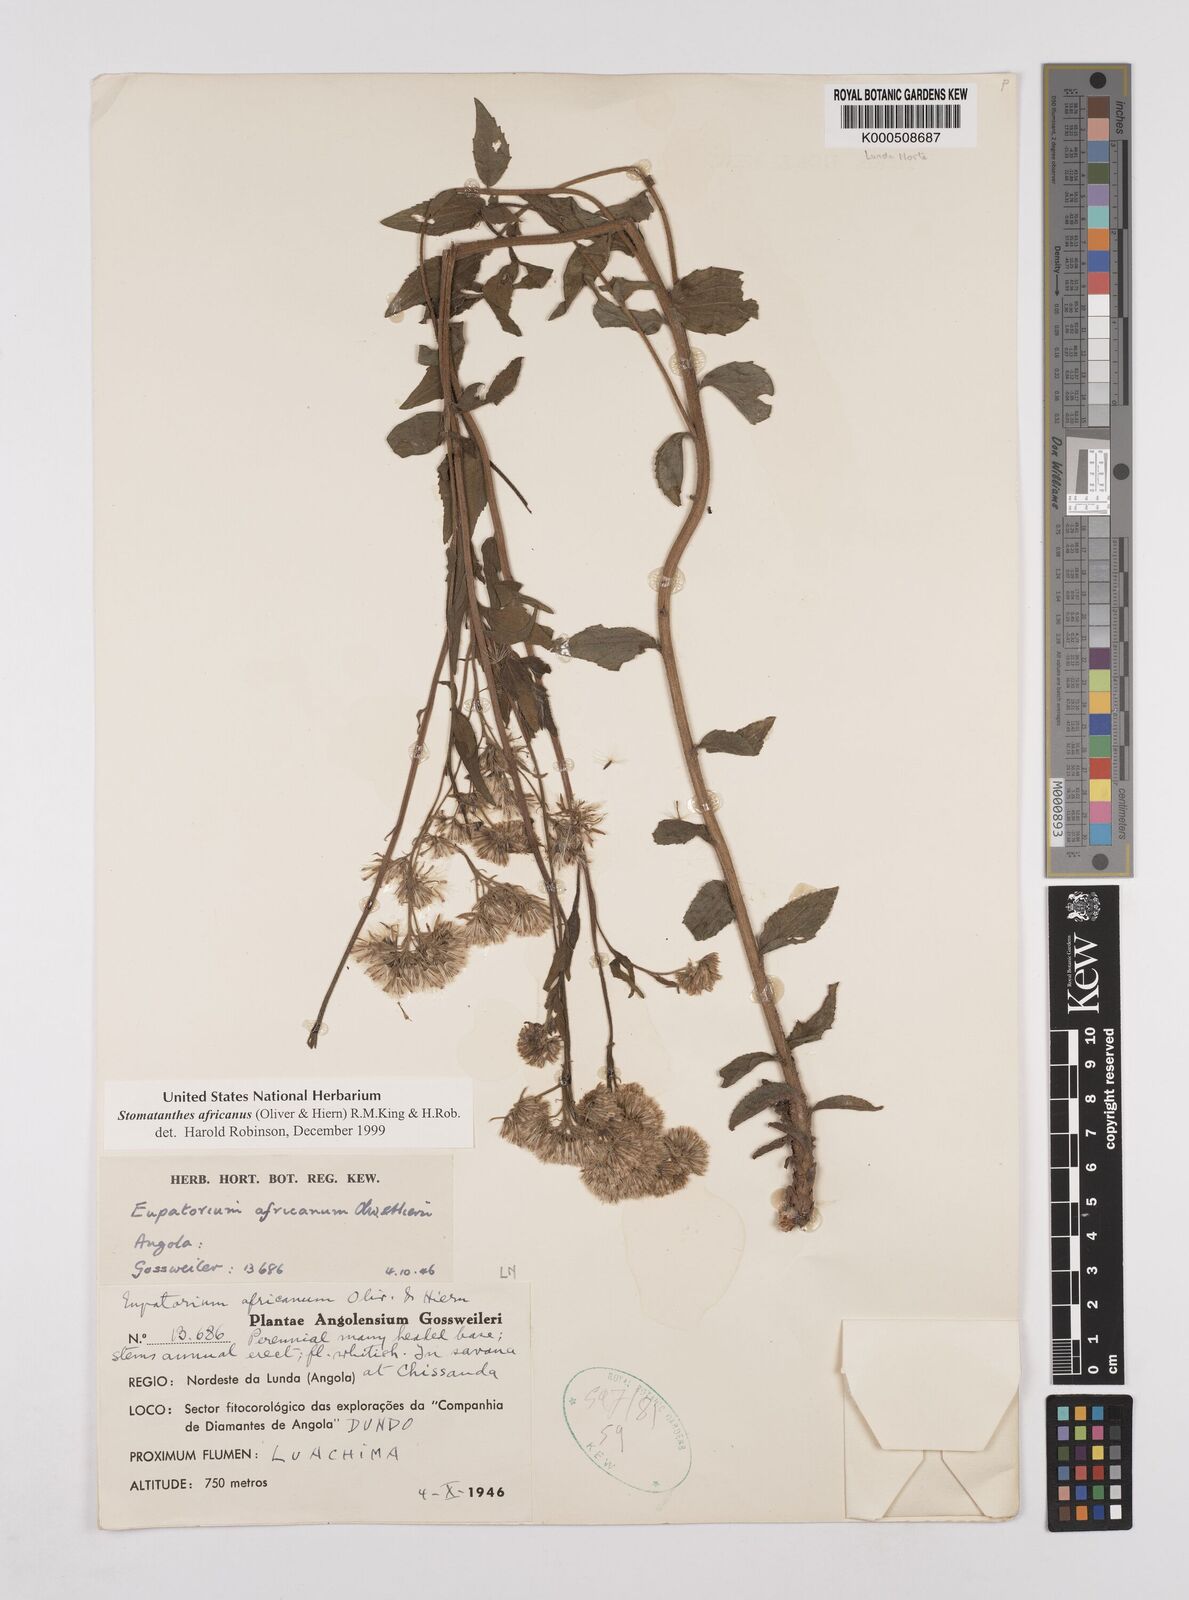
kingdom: Plantae
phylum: Tracheophyta
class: Magnoliopsida
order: Asterales
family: Asteraceae
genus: Stomatanthes
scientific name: Stomatanthes africanus
